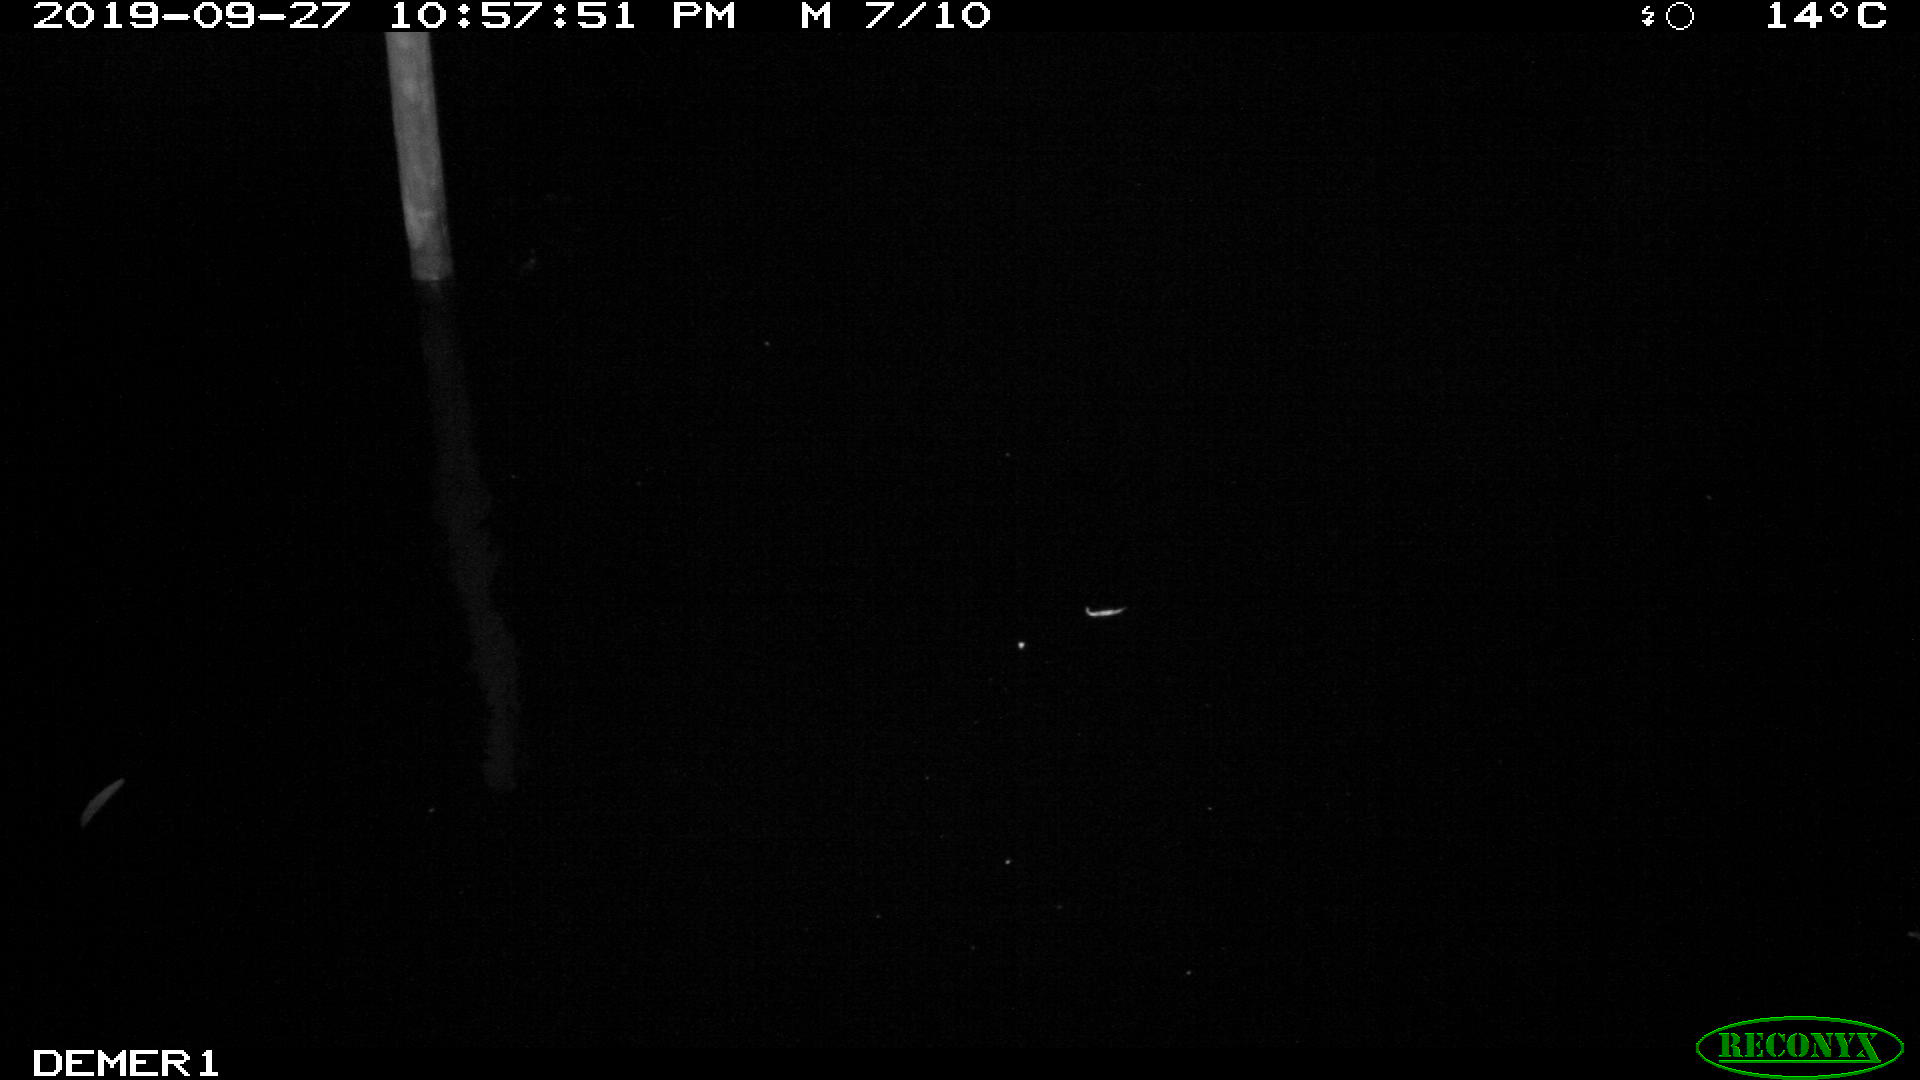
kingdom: Animalia
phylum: Chordata
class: Aves
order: Anseriformes
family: Anatidae
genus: Anas
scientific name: Anas platyrhynchos
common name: Mallard
